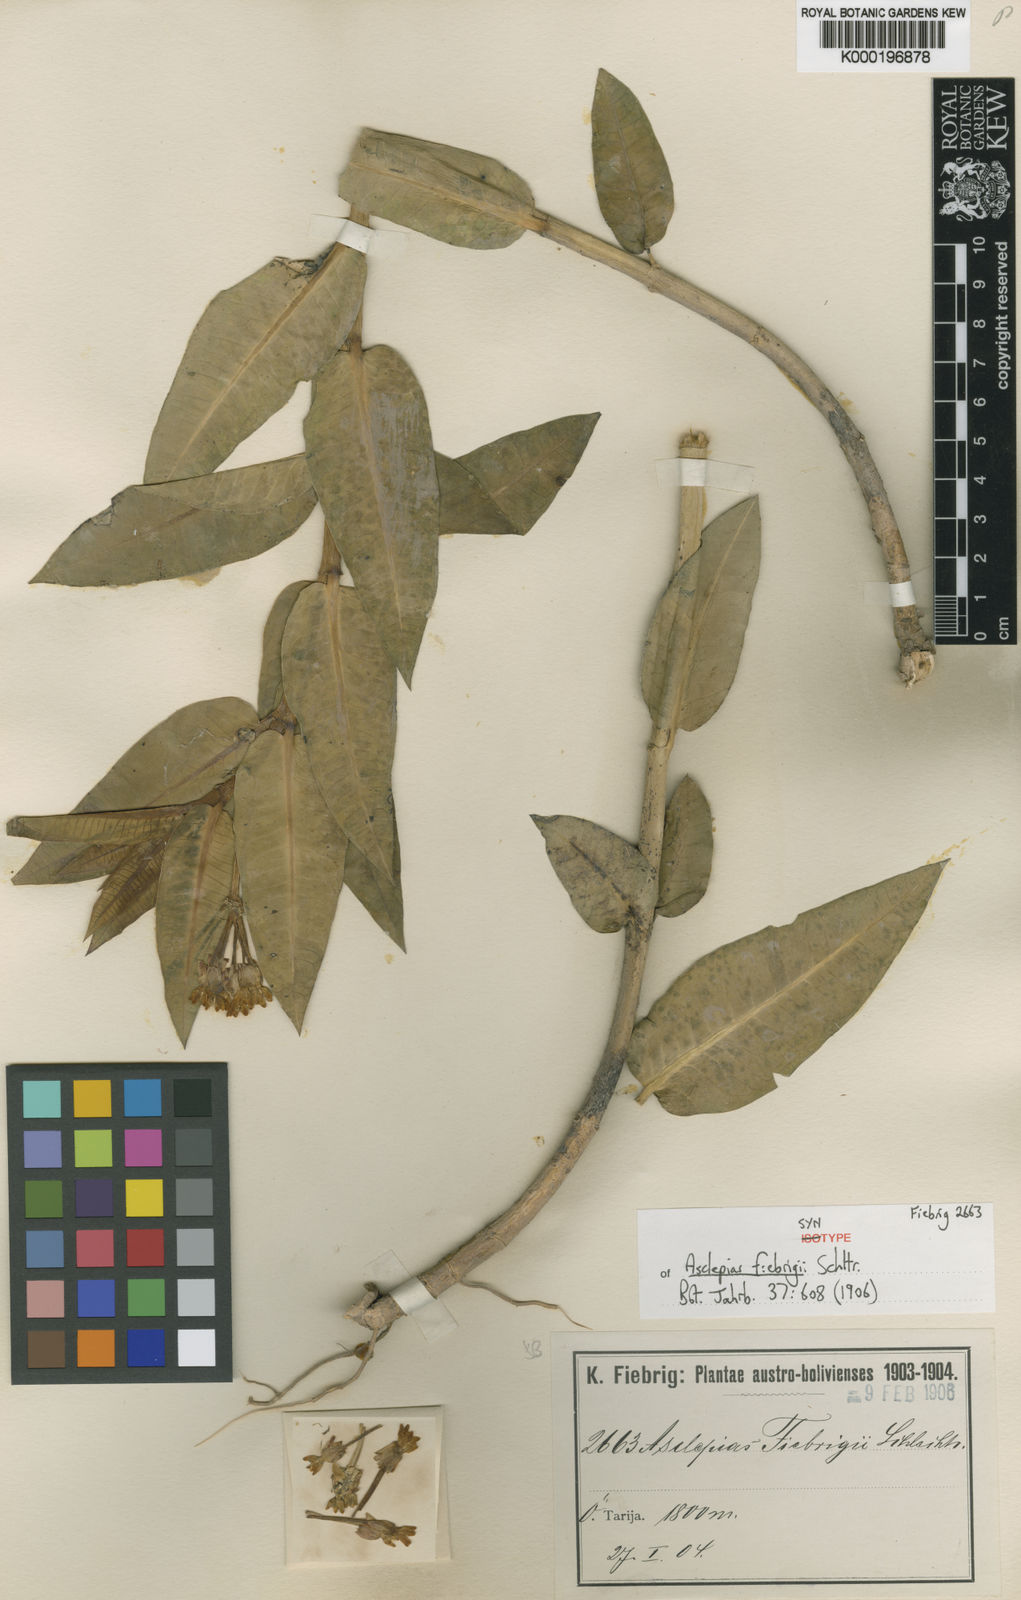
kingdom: Plantae
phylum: Tracheophyta
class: Magnoliopsida
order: Gentianales
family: Apocynaceae
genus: Asclepias
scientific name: Asclepias barjoniifolia
